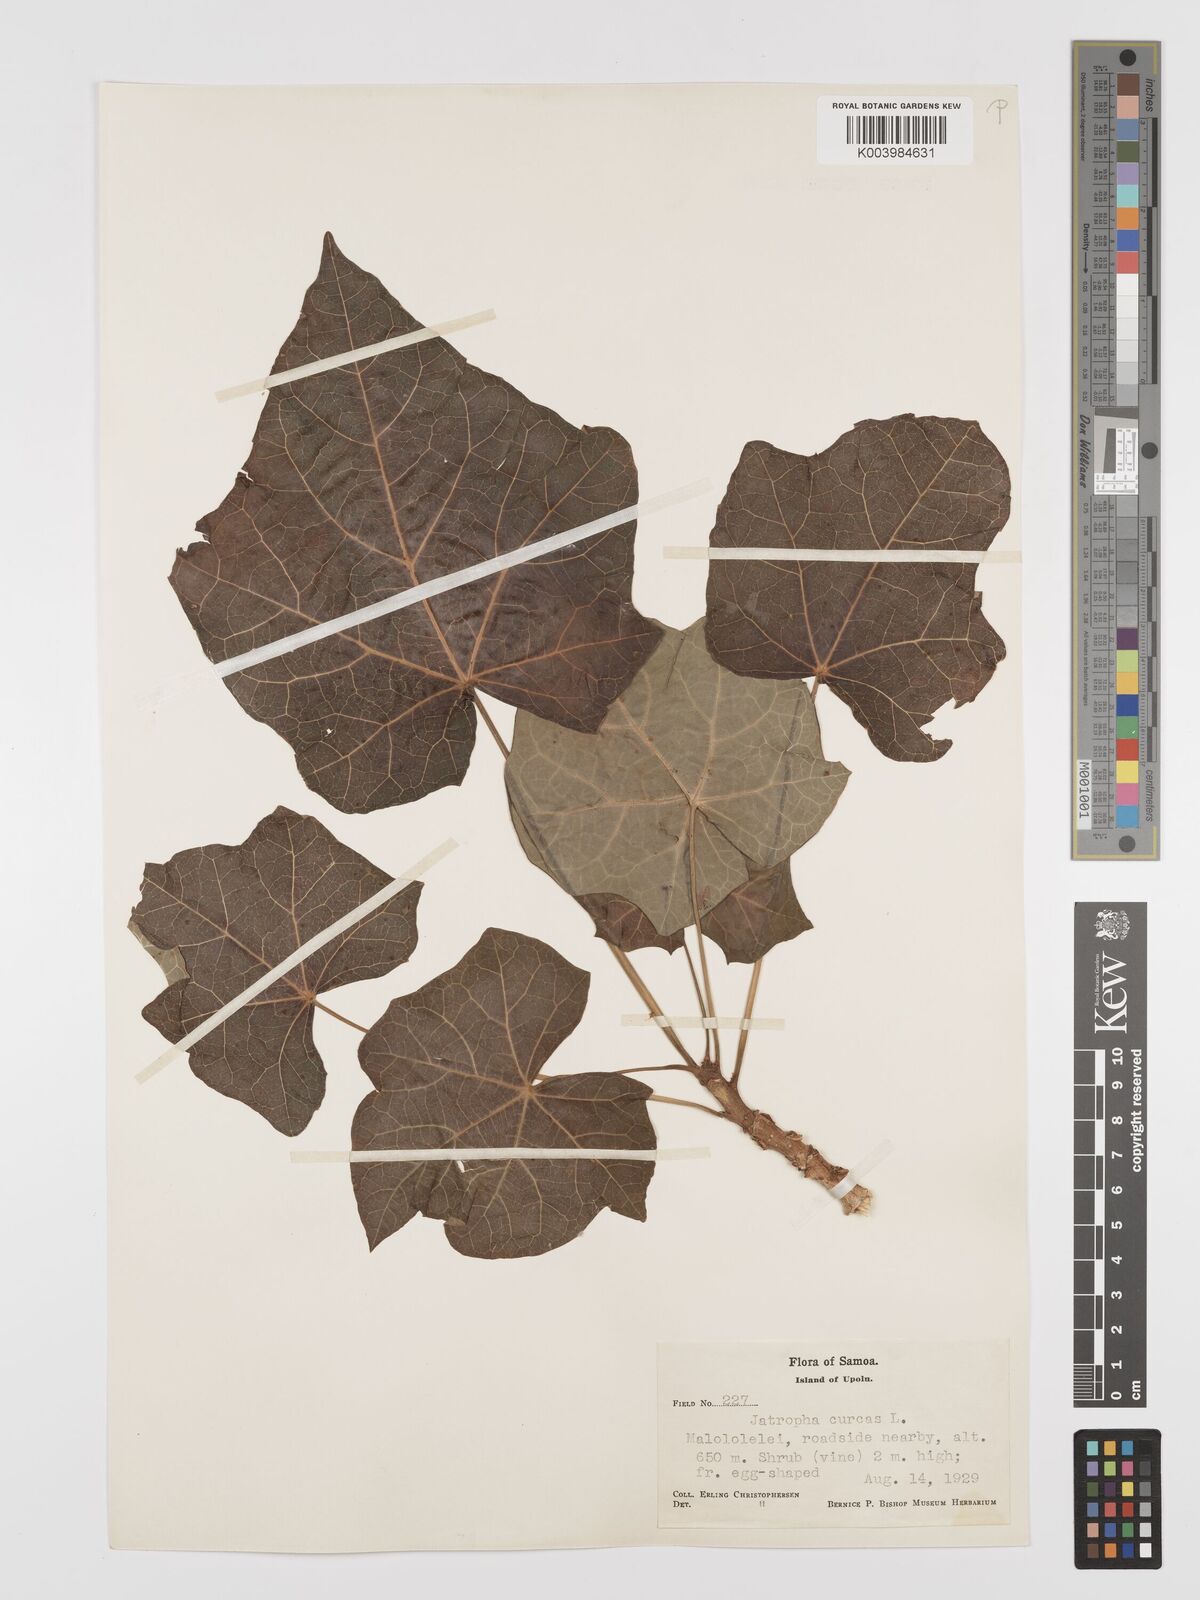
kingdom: Plantae
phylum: Tracheophyta
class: Magnoliopsida
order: Malpighiales
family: Euphorbiaceae
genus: Jatropha
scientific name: Jatropha curcas
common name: Barbados nut
